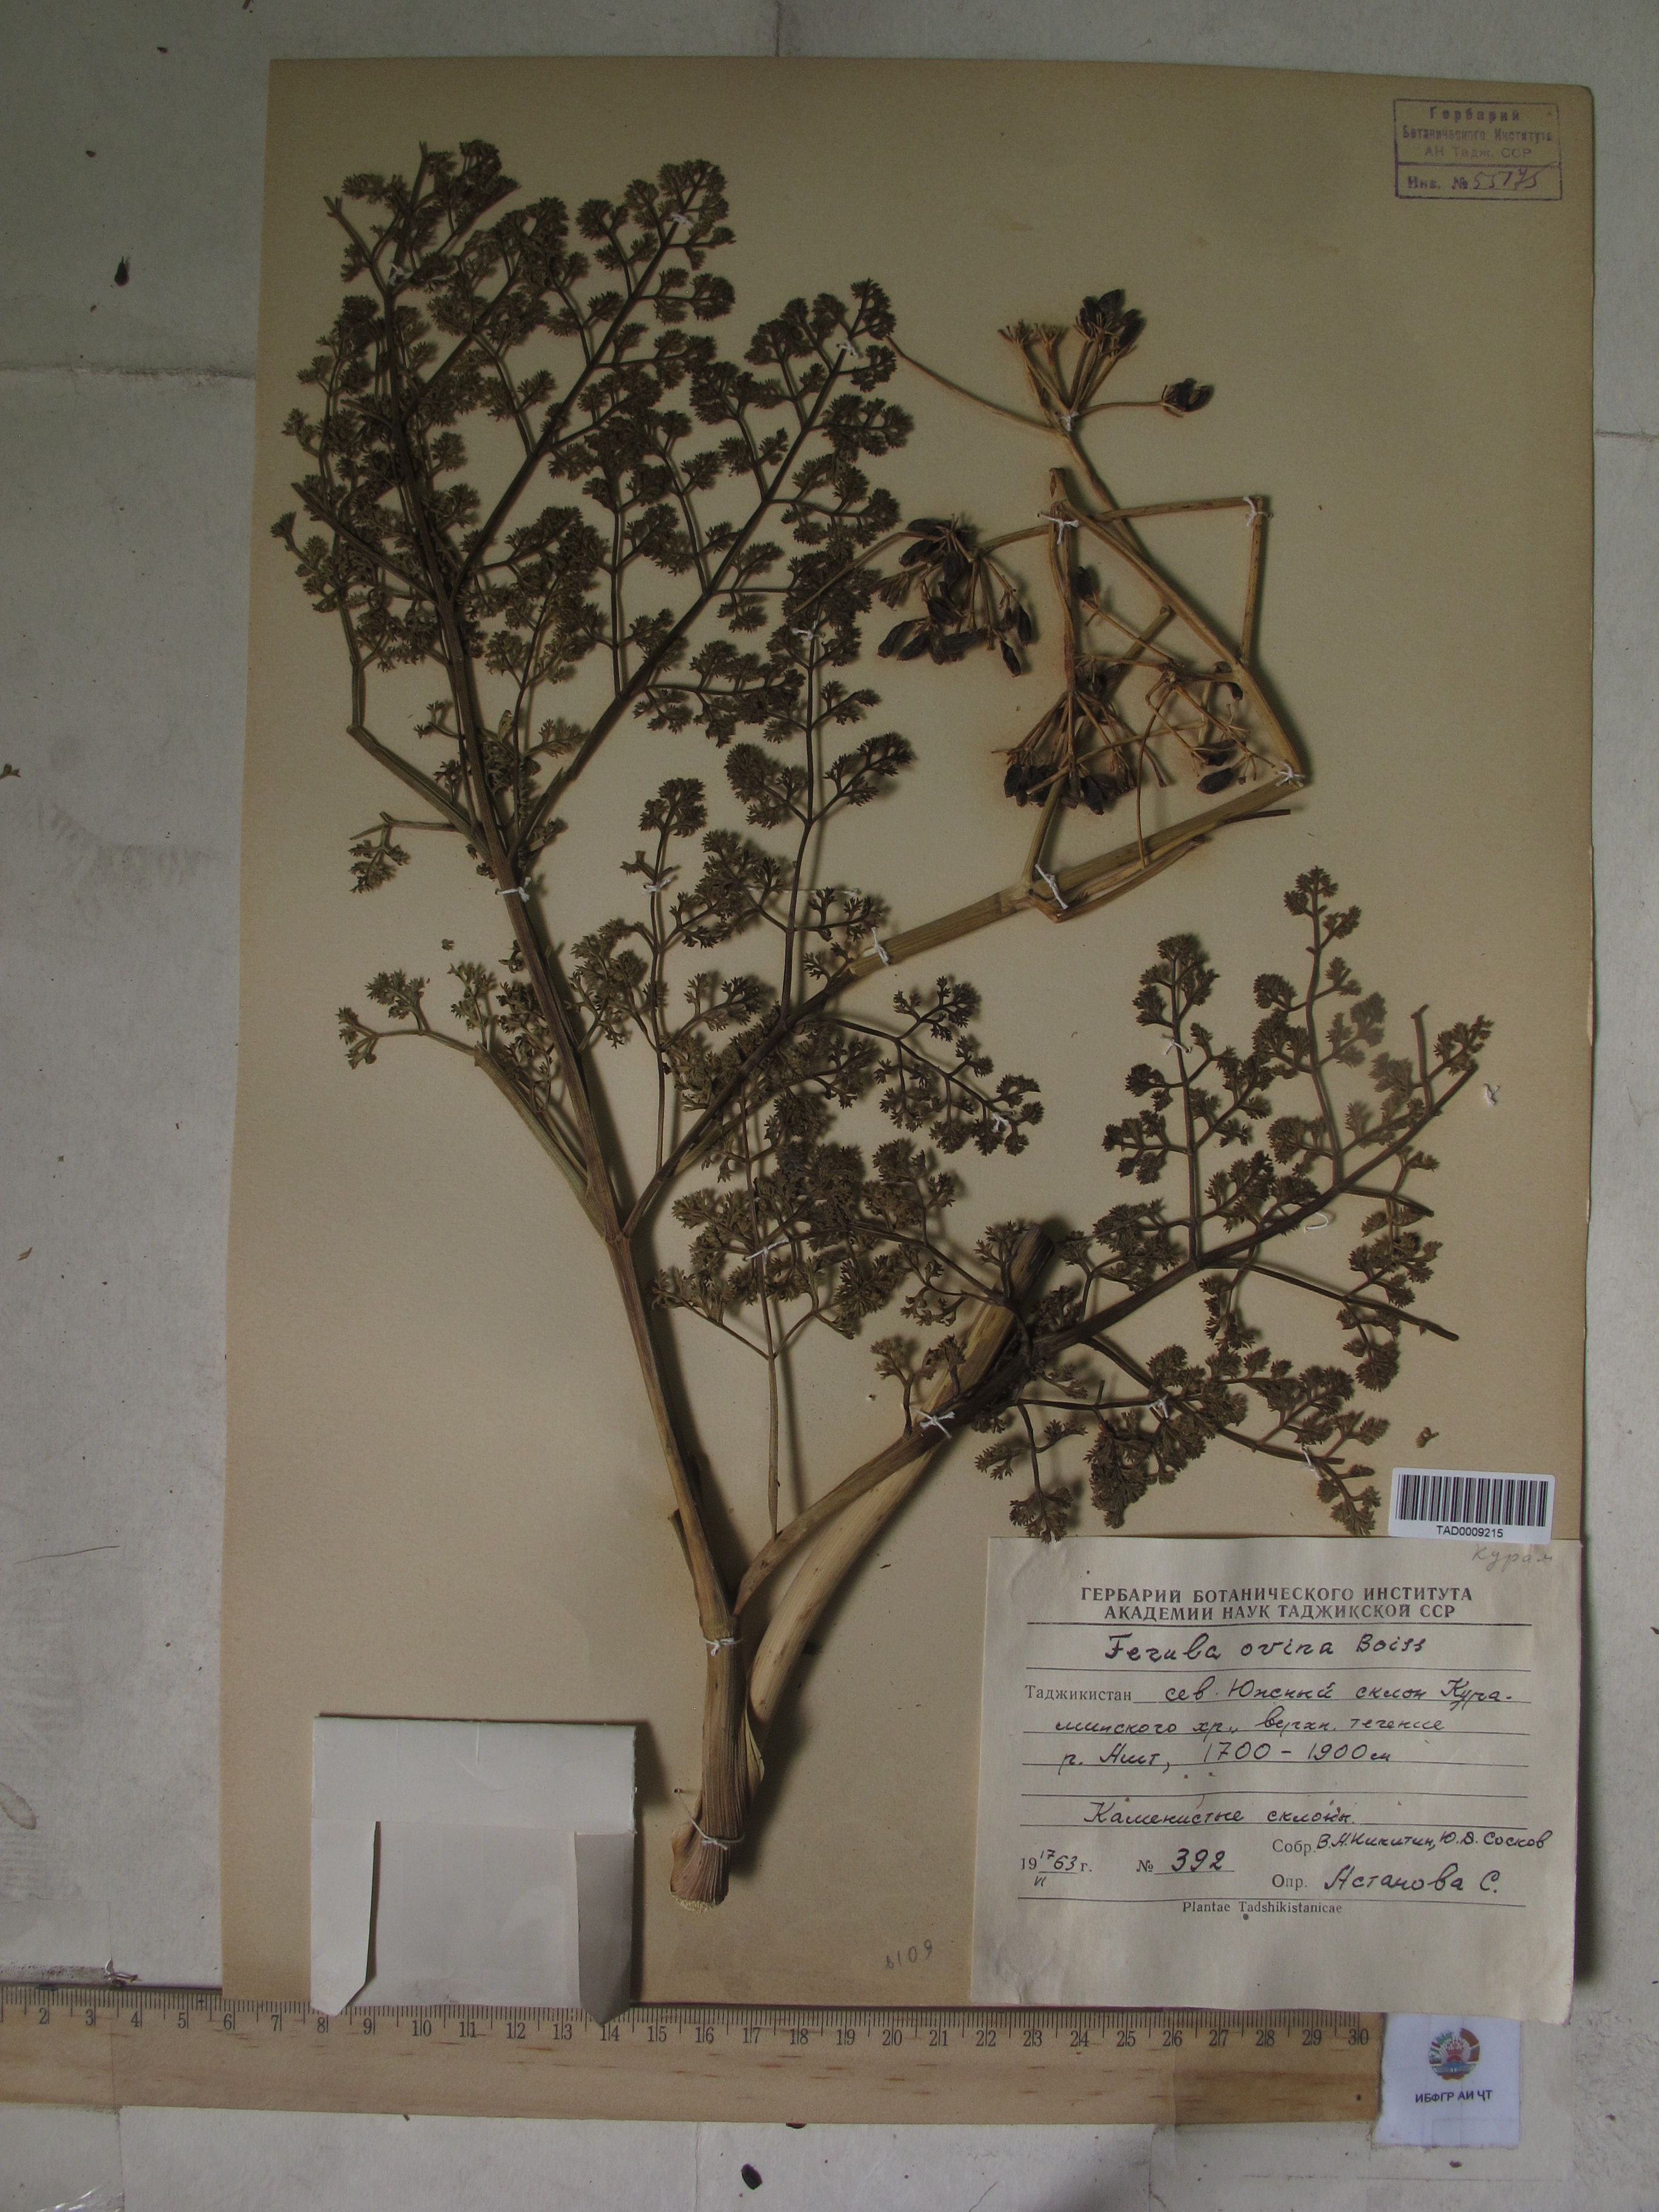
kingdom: Plantae
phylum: Tracheophyta
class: Magnoliopsida
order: Apiales
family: Apiaceae
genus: Ferula
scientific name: Ferula ovina
